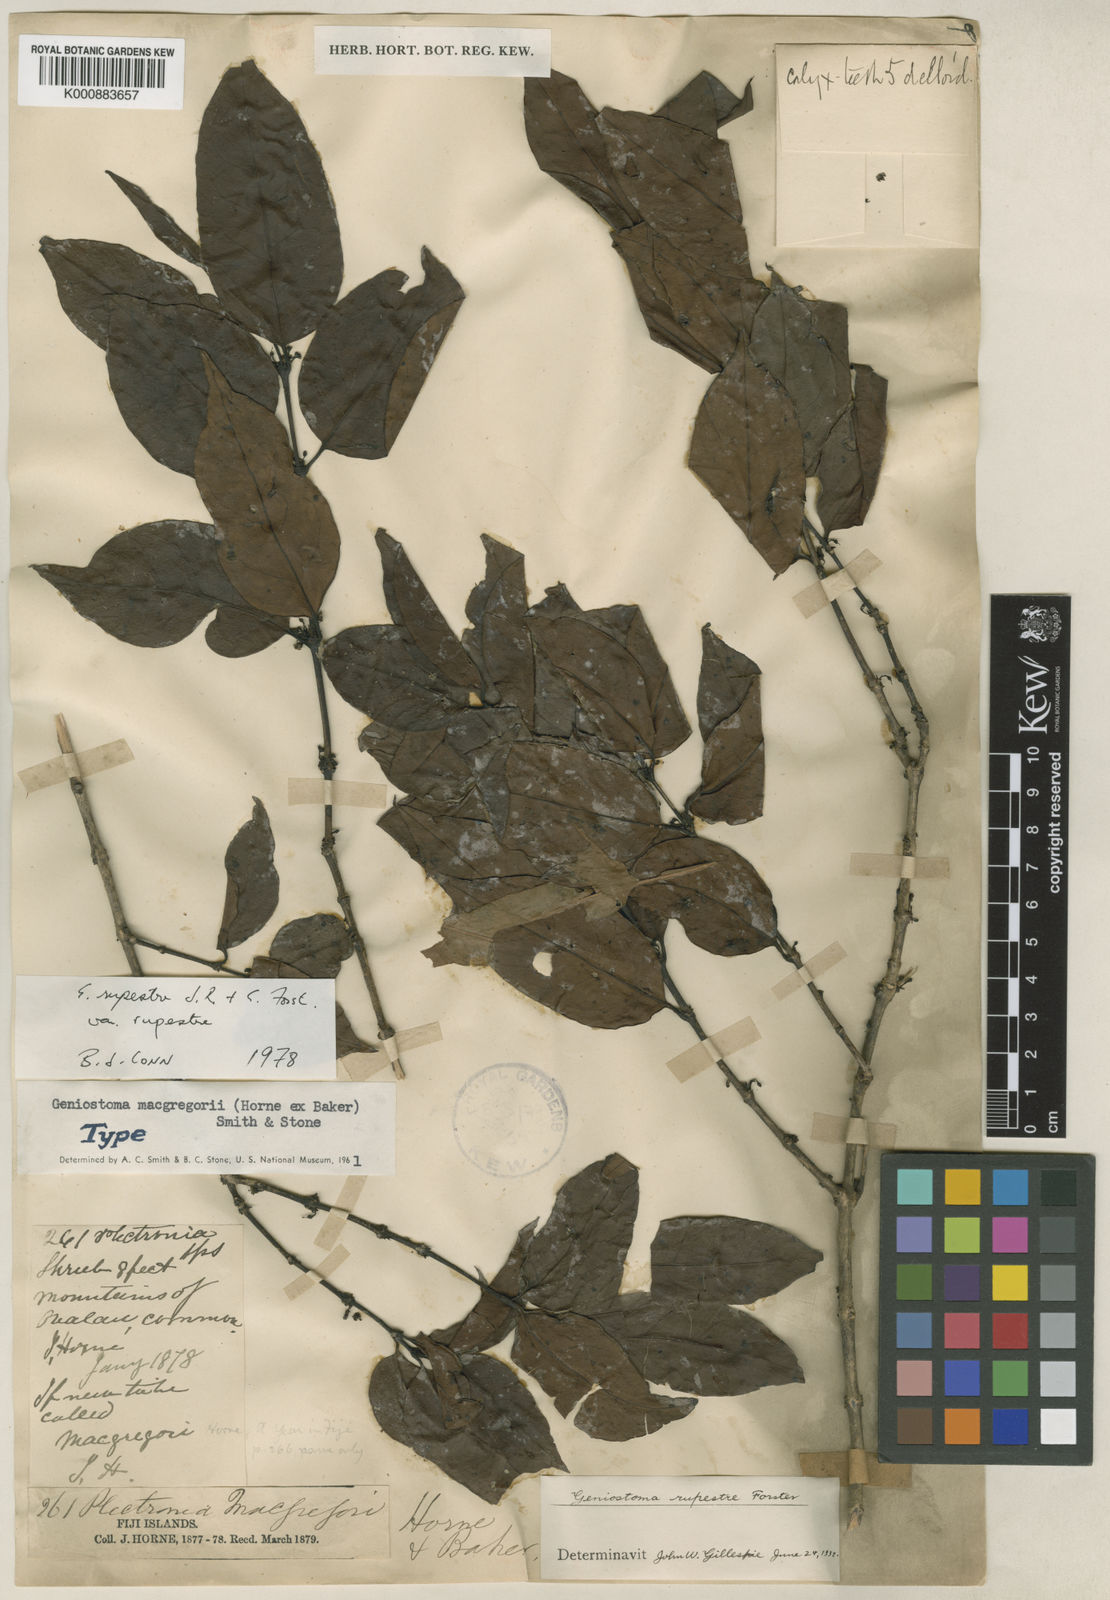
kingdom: Plantae
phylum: Tracheophyta
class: Magnoliopsida
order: Gentianales
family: Loganiaceae
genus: Geniostoma
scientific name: Geniostoma rupestre
